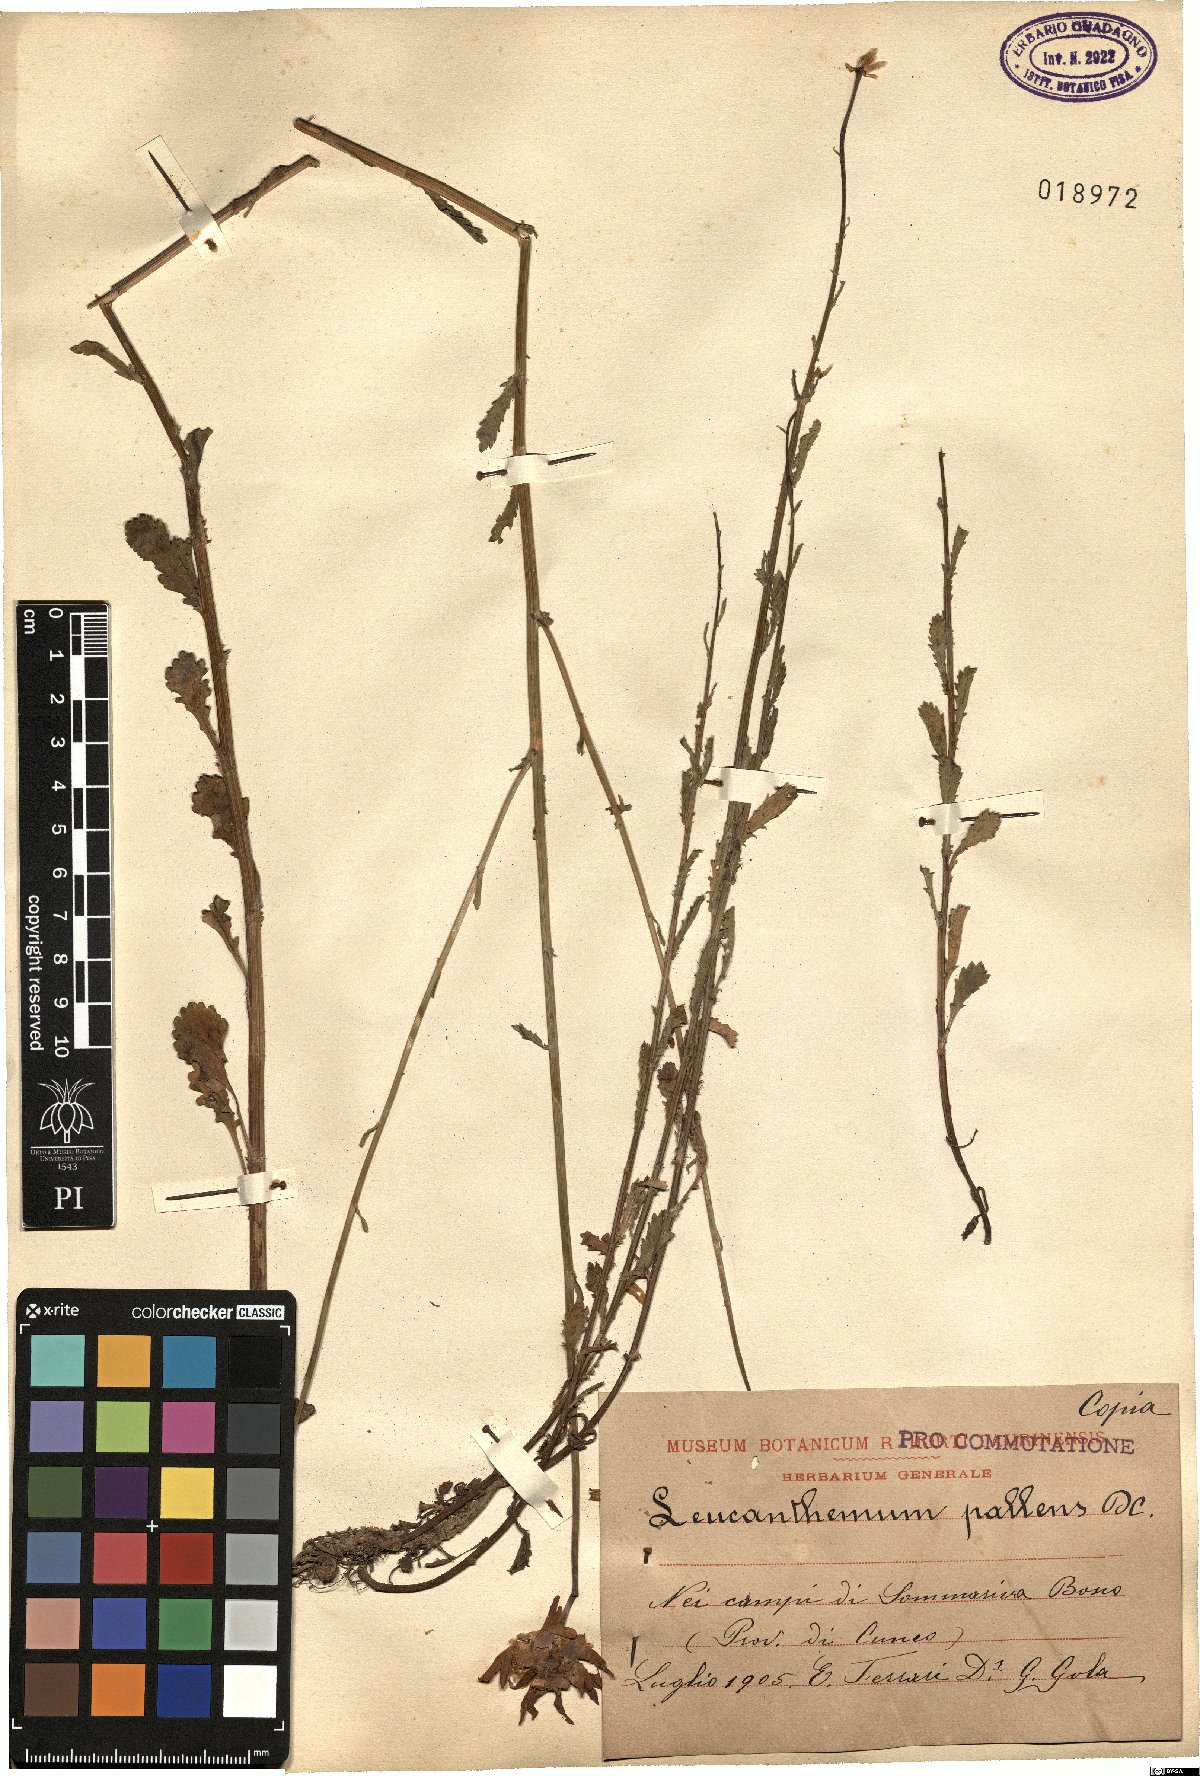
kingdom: Plantae
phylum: Tracheophyta
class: Magnoliopsida
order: Asterales
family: Asteraceae
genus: Leucanthemum
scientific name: Leucanthemum pallens
